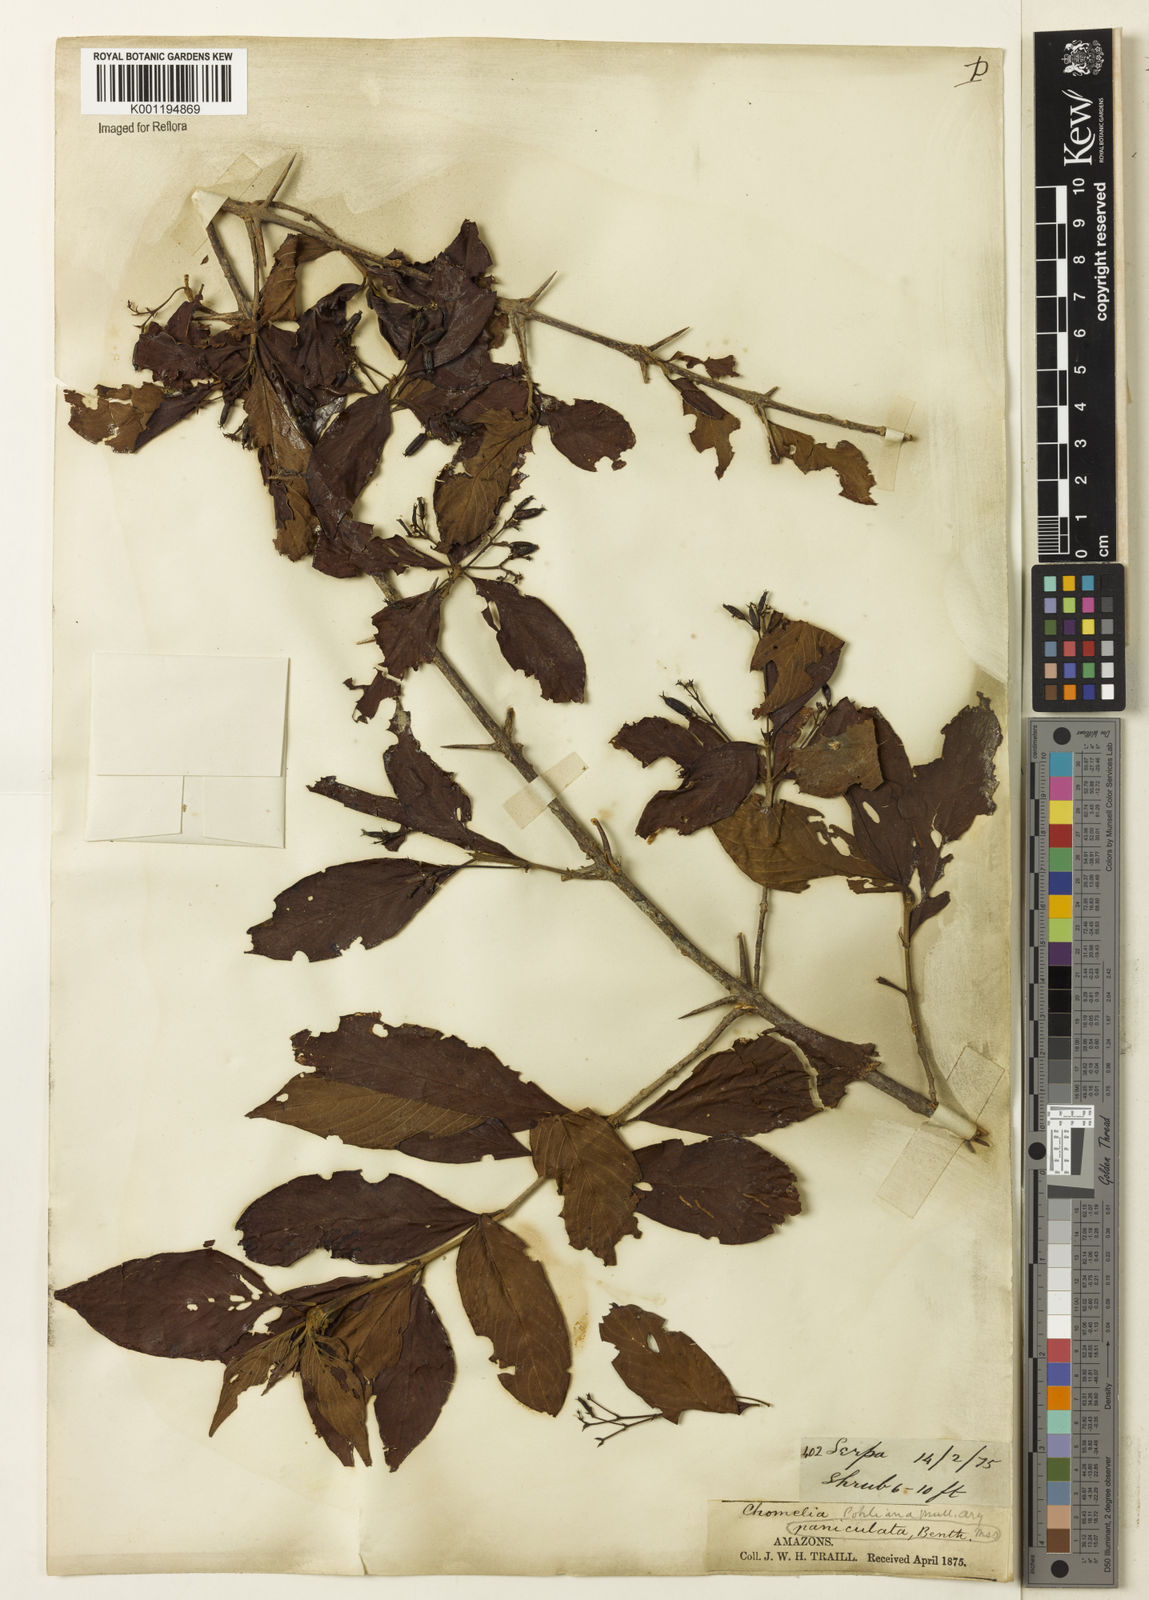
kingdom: Plantae
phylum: Tracheophyta
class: Magnoliopsida
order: Gentianales
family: Rubiaceae
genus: Chomelia
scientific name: Chomelia
